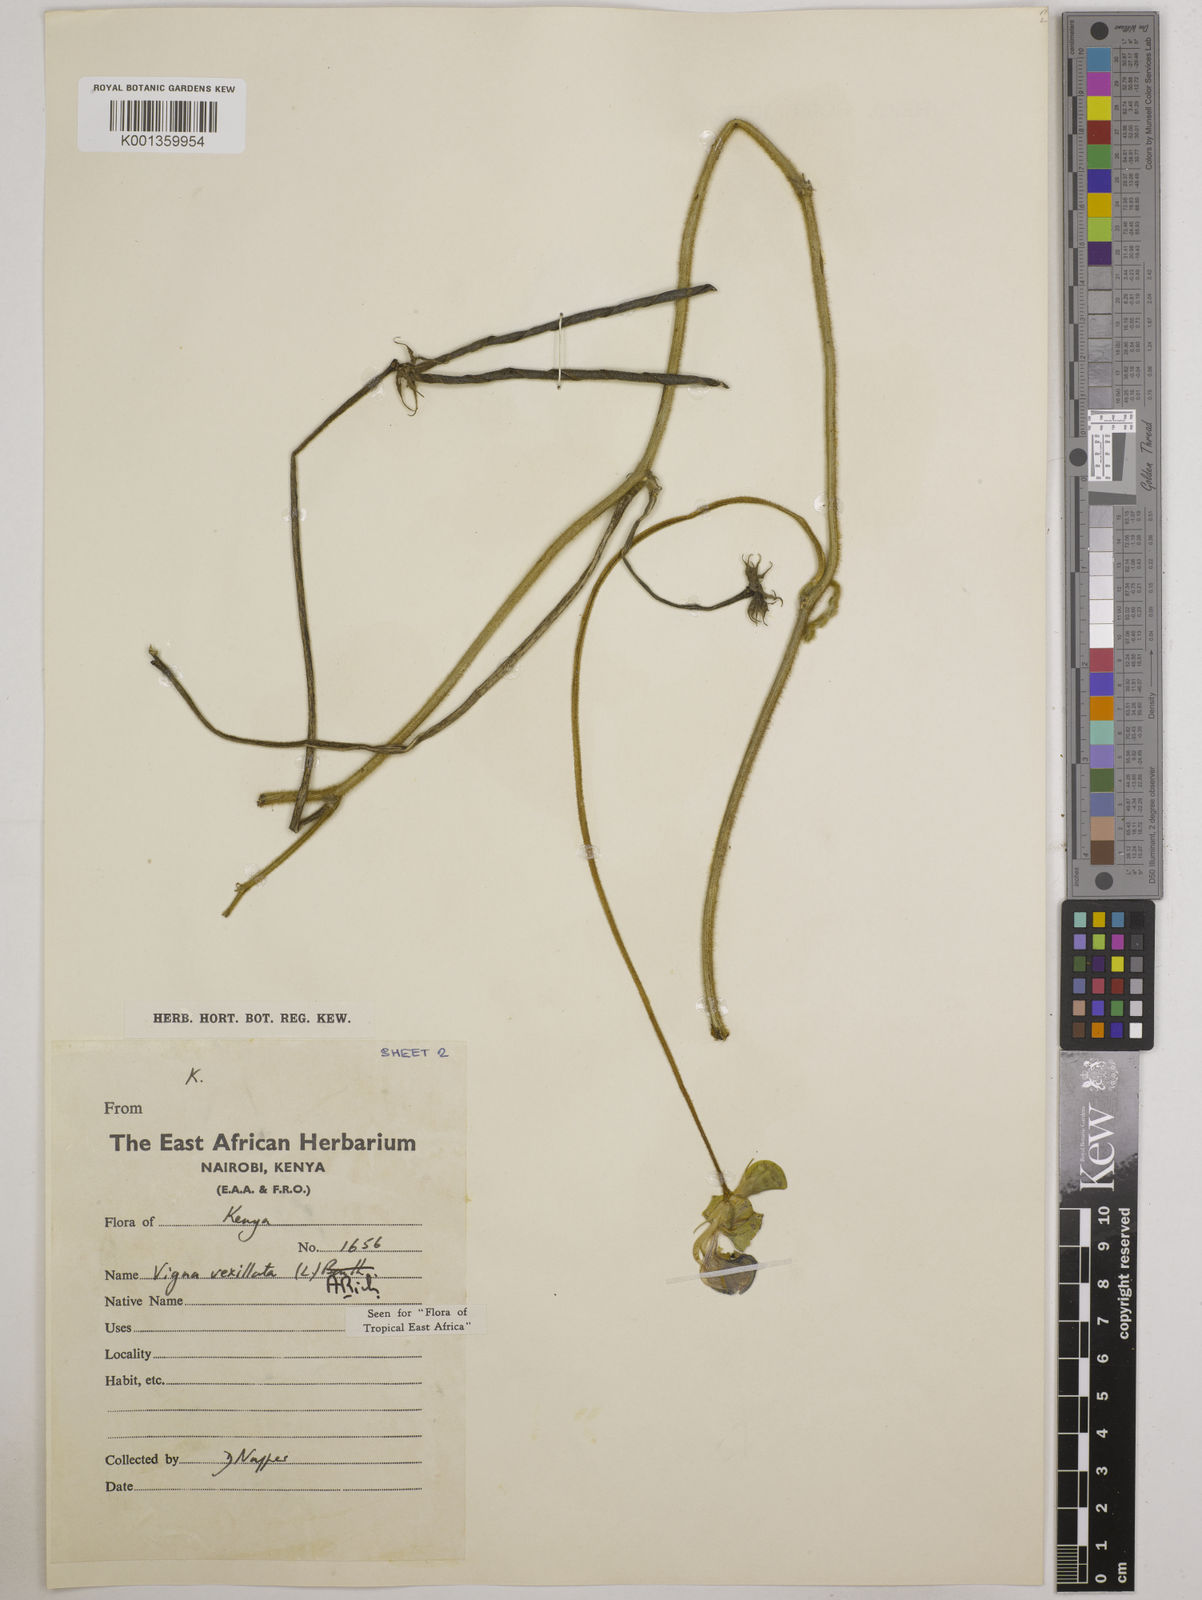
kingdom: Plantae
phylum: Tracheophyta
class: Magnoliopsida
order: Fabales
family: Fabaceae
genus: Vigna
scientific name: Vigna vexillata
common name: Zombi pea
